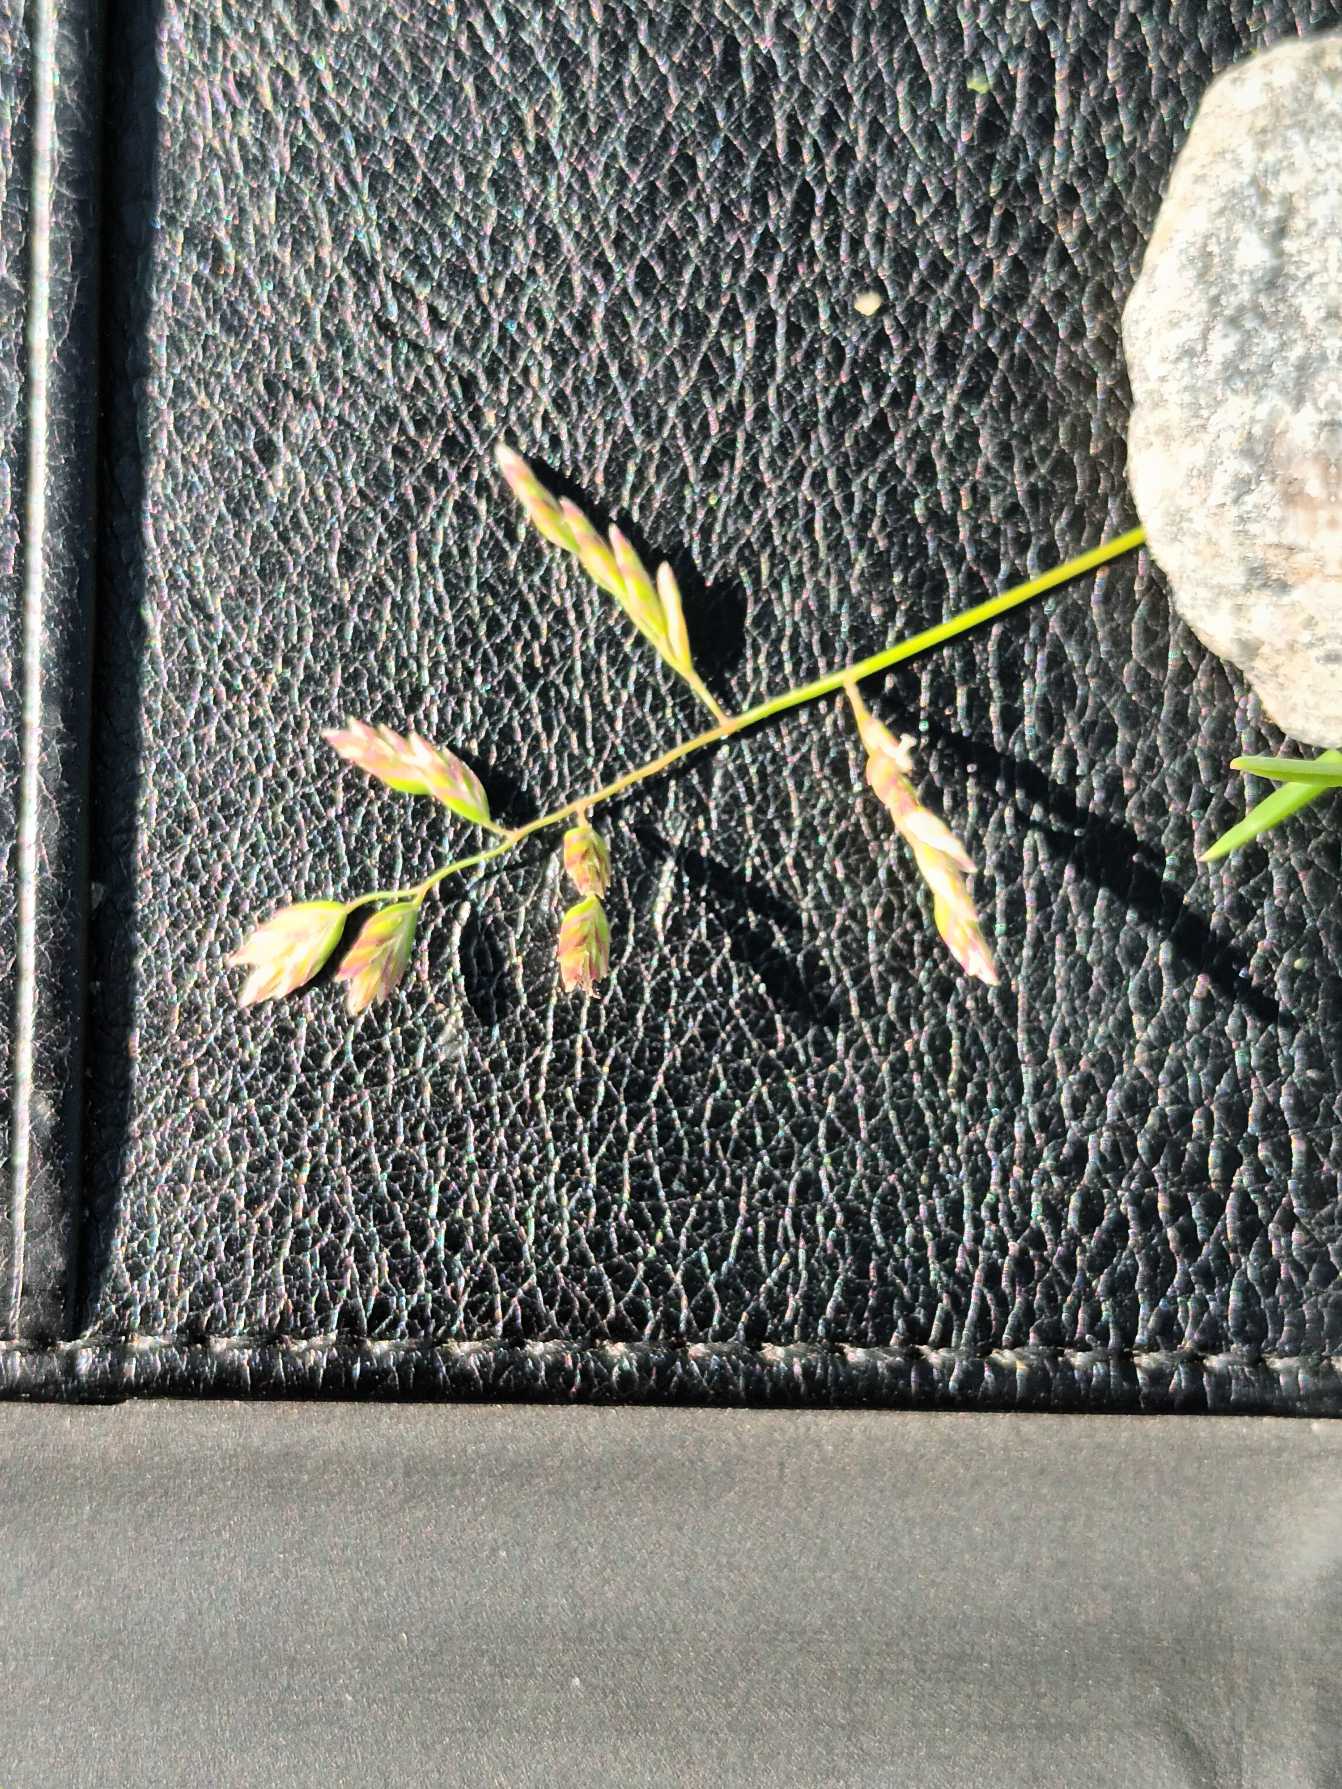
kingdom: Plantae
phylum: Tracheophyta
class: Liliopsida
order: Poales
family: Poaceae
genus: Poa
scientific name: Poa annua
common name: Enårig rapgræs
